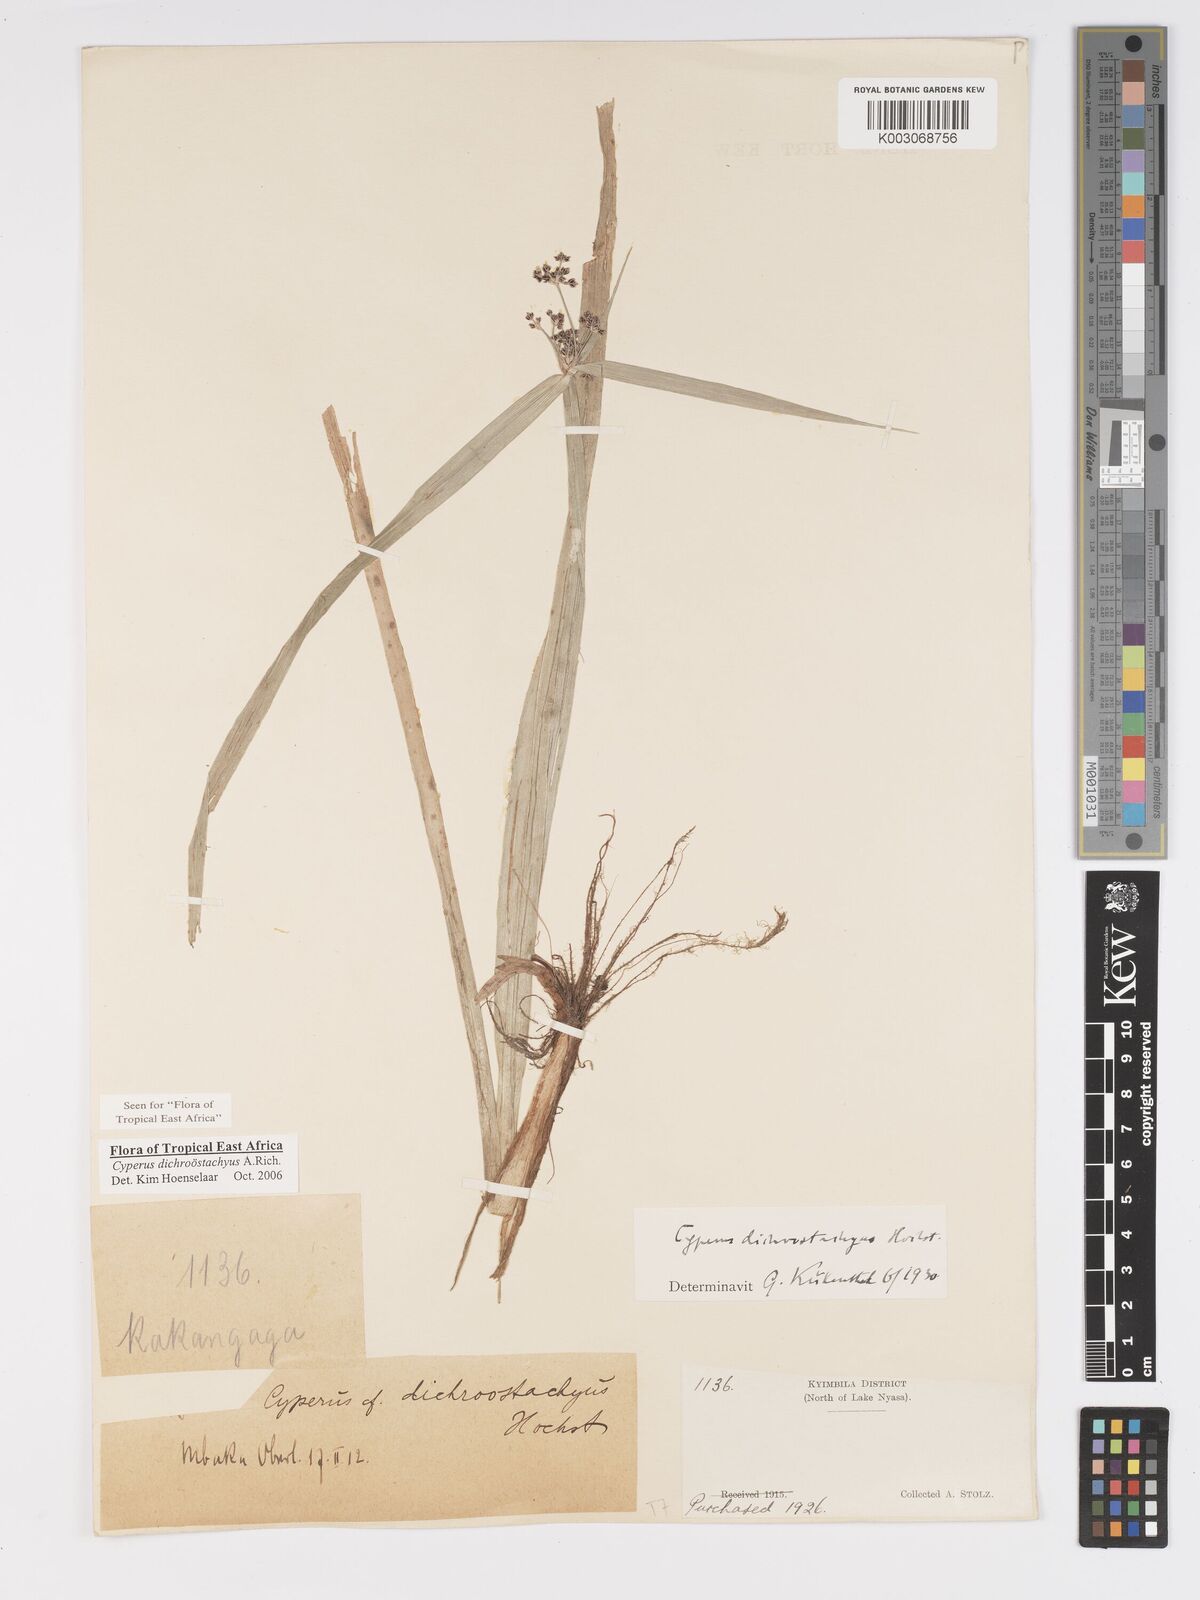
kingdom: Plantae
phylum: Tracheophyta
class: Liliopsida
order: Poales
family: Cyperaceae
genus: Cyperus
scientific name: Cyperus dichrostachyus
